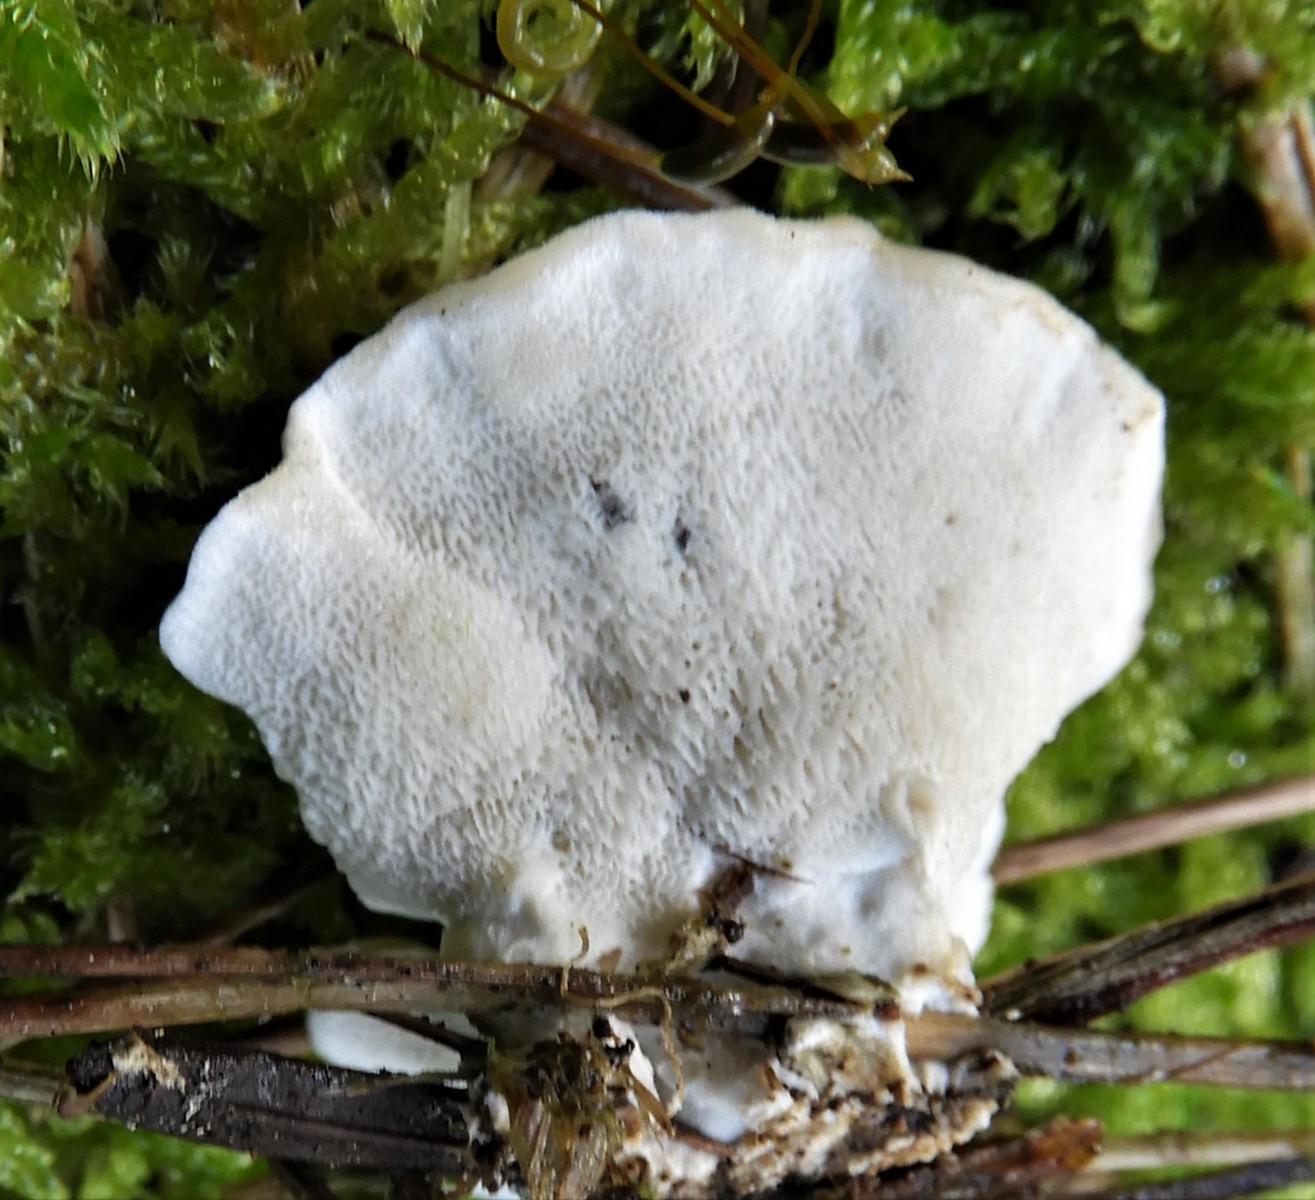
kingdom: Fungi
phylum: Basidiomycota
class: Agaricomycetes
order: Polyporales
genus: Calcipostia
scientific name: Calcipostia guttulata
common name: dråbe-kødporesvamp
